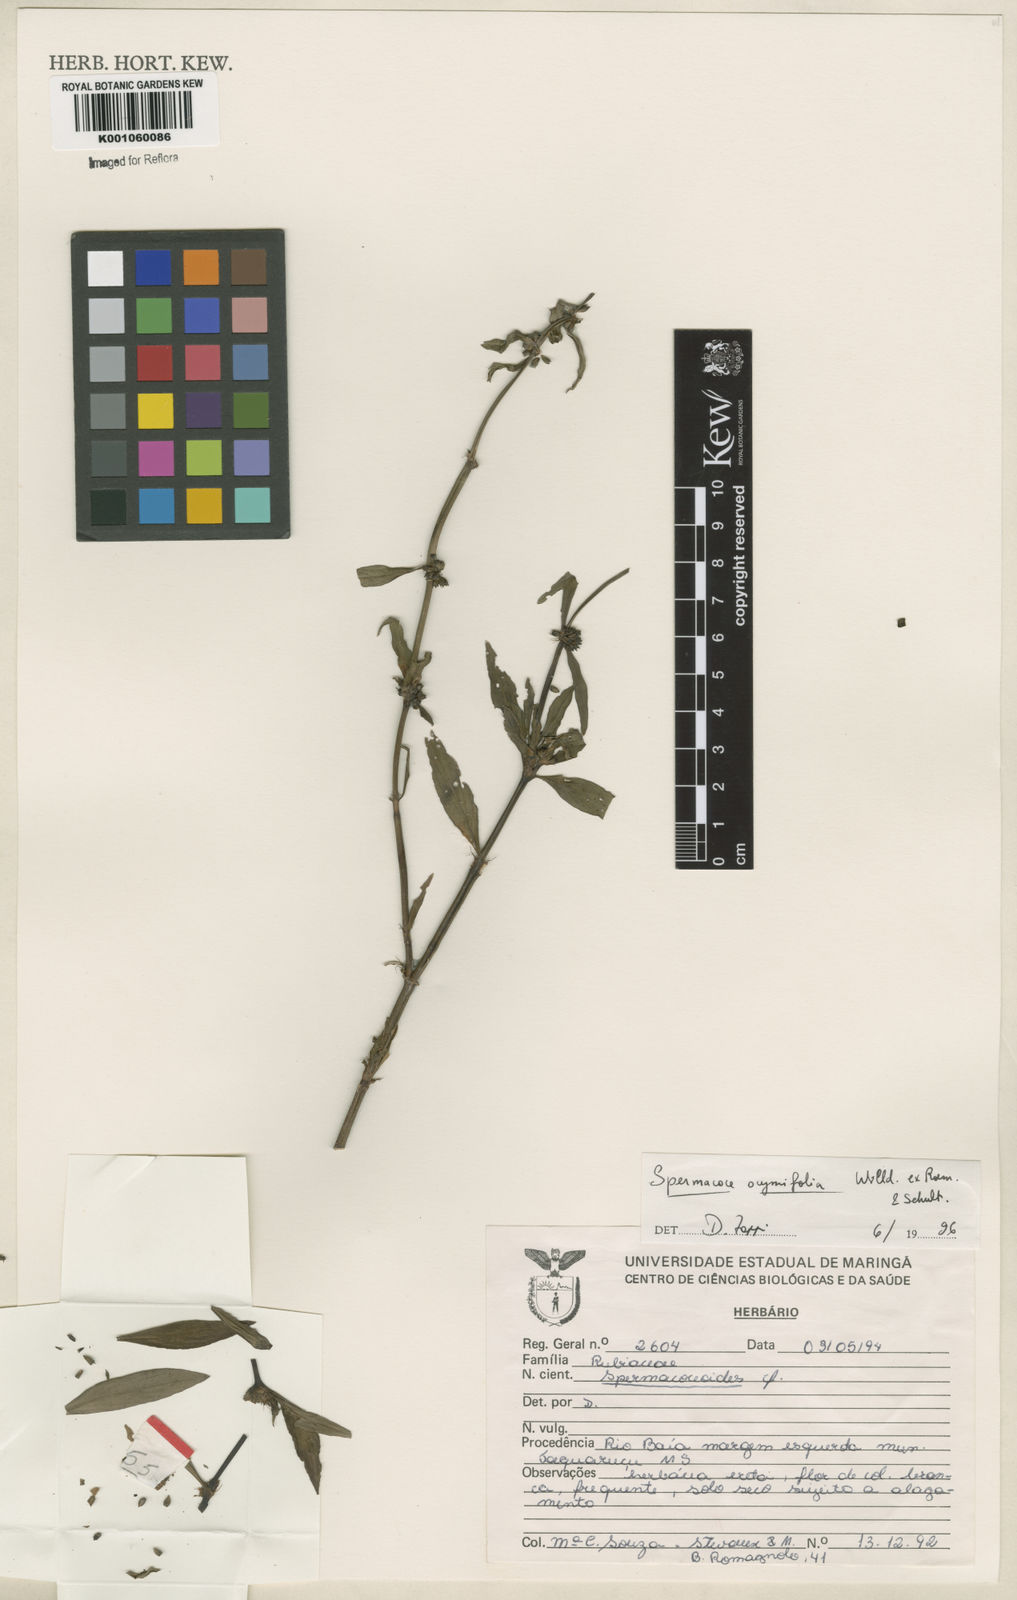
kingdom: Plantae
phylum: Tracheophyta
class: Magnoliopsida
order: Gentianales
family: Rubiaceae
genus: Spermacoce
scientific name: Spermacoce
